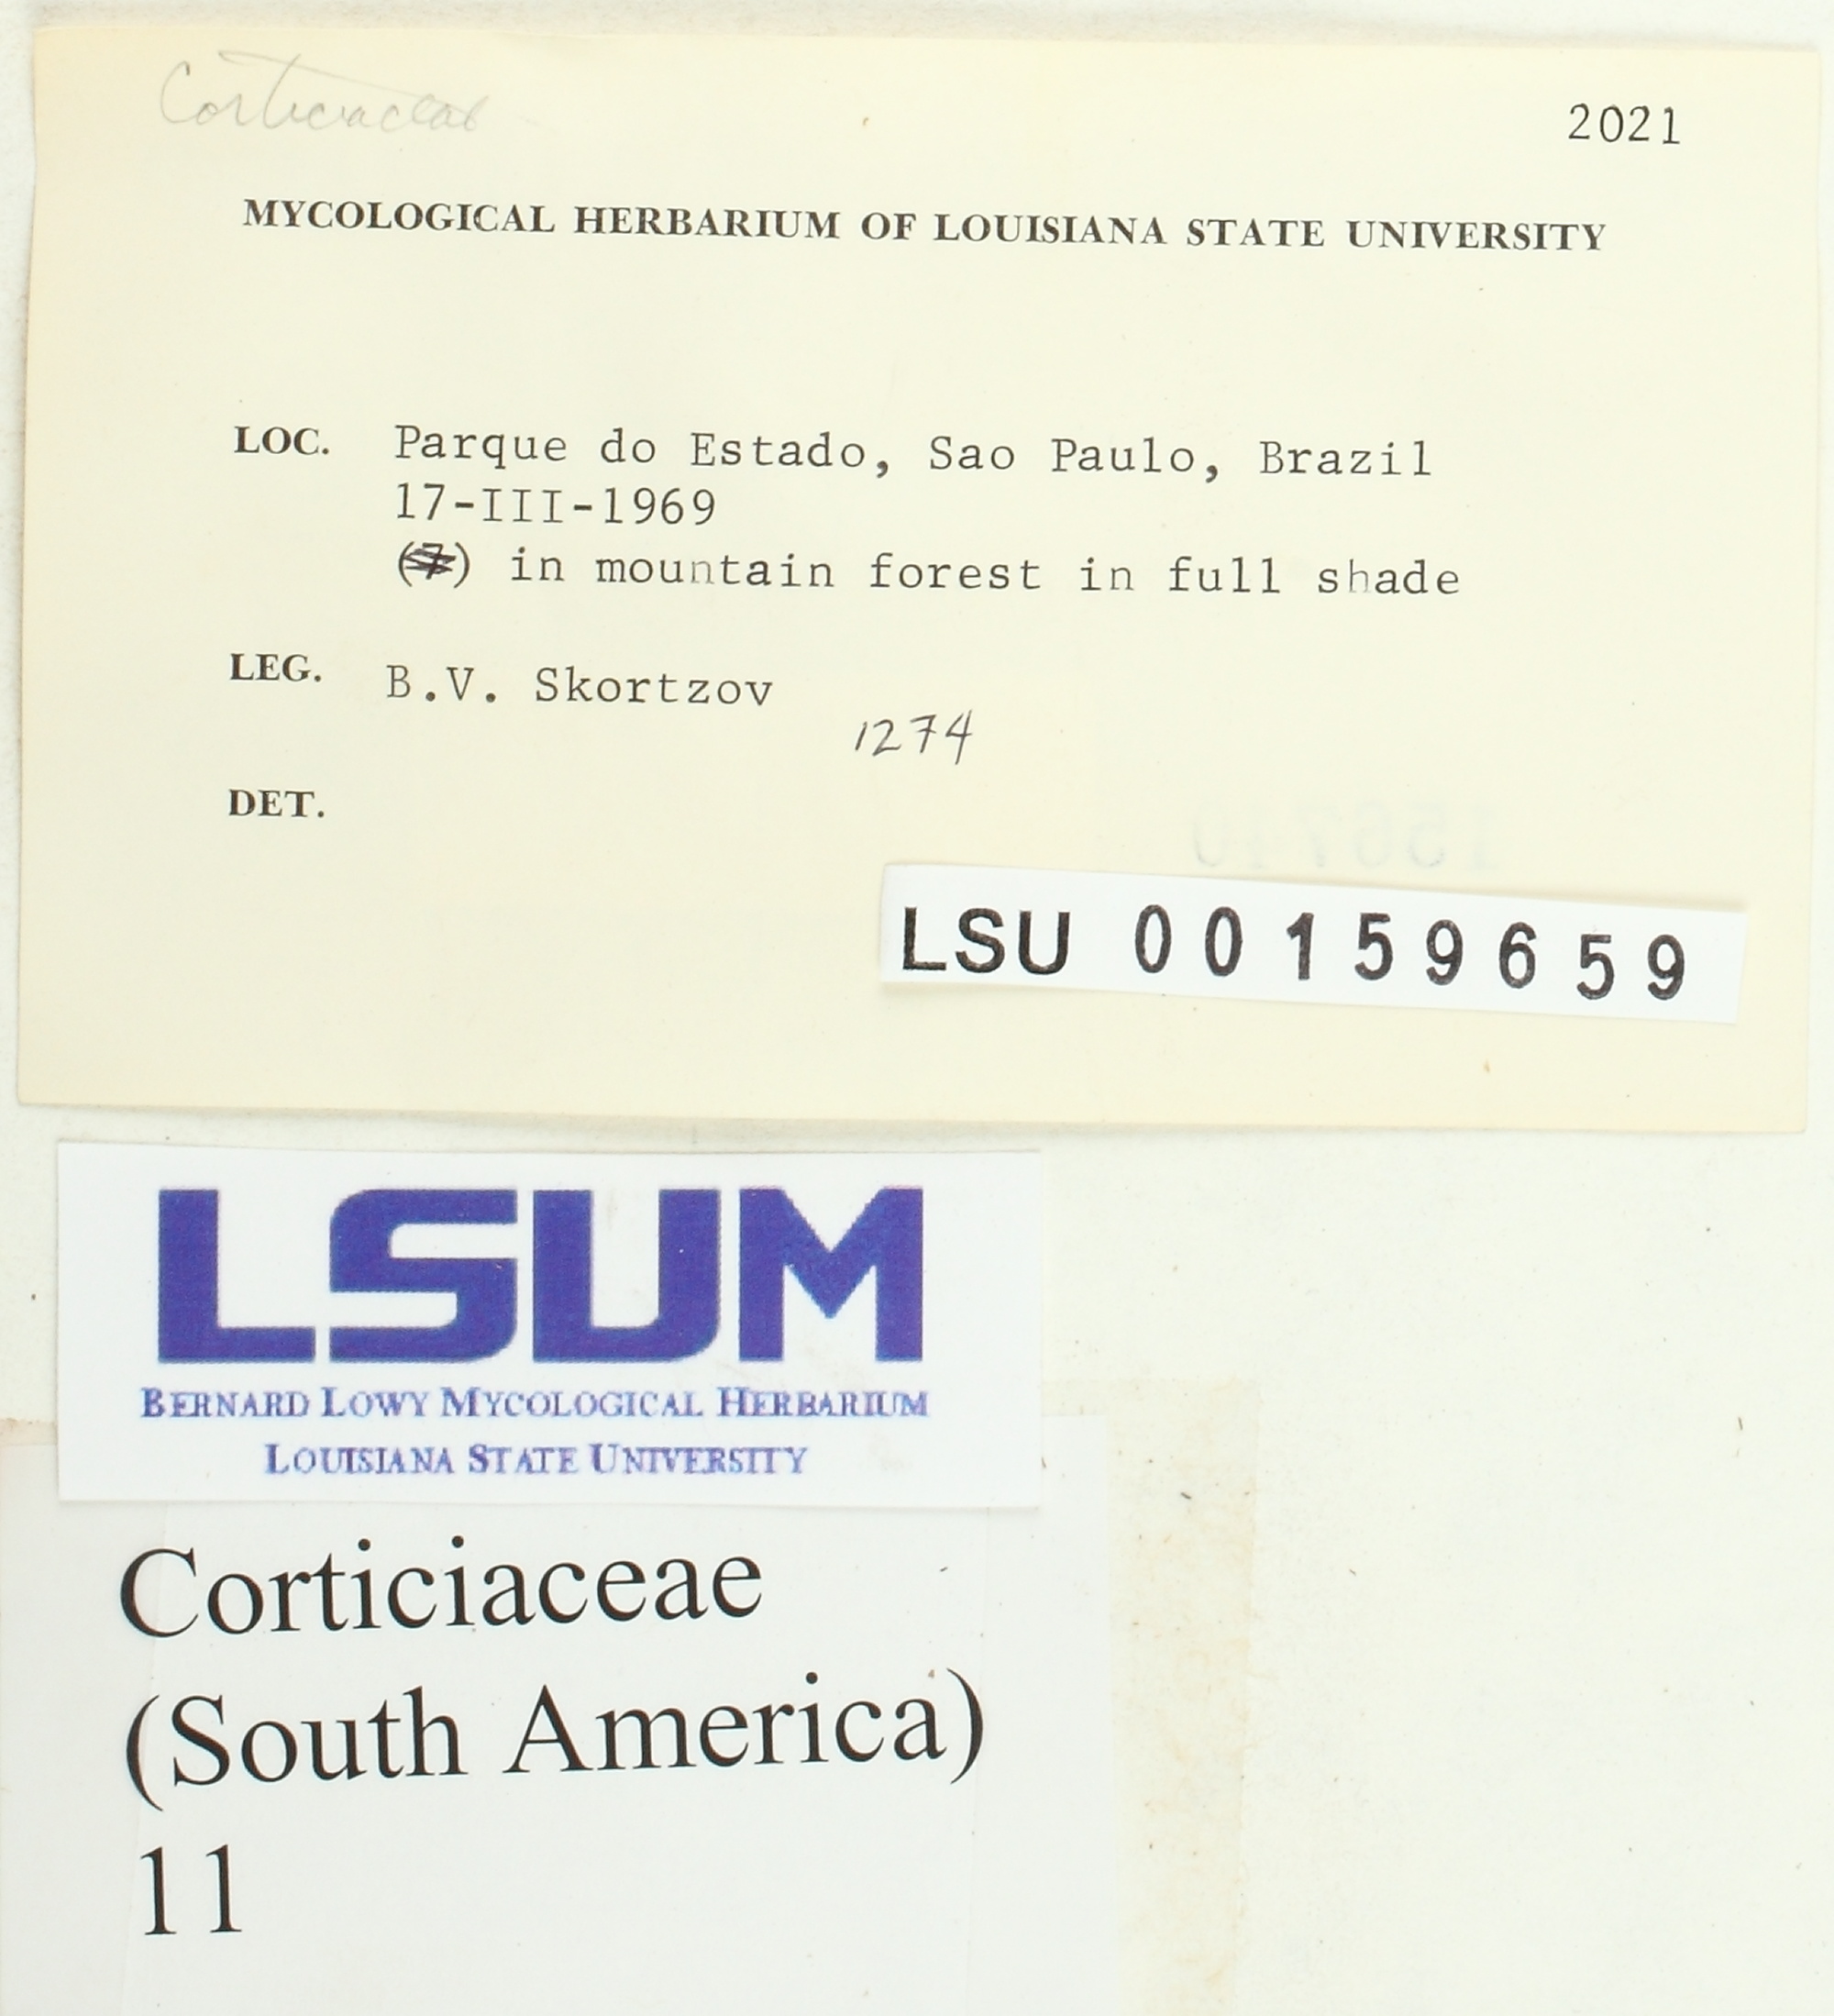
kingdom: Fungi
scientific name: Fungi
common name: Fungi
